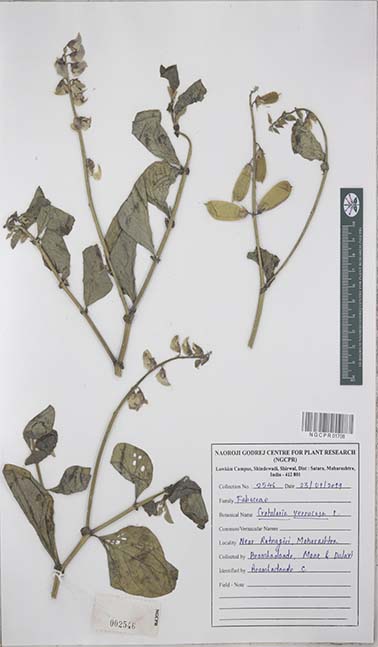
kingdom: Plantae
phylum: Tracheophyta
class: Magnoliopsida
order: Fabales
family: Fabaceae
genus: Crotalaria
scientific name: Crotalaria verrucosa
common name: Blue rattlesnake
